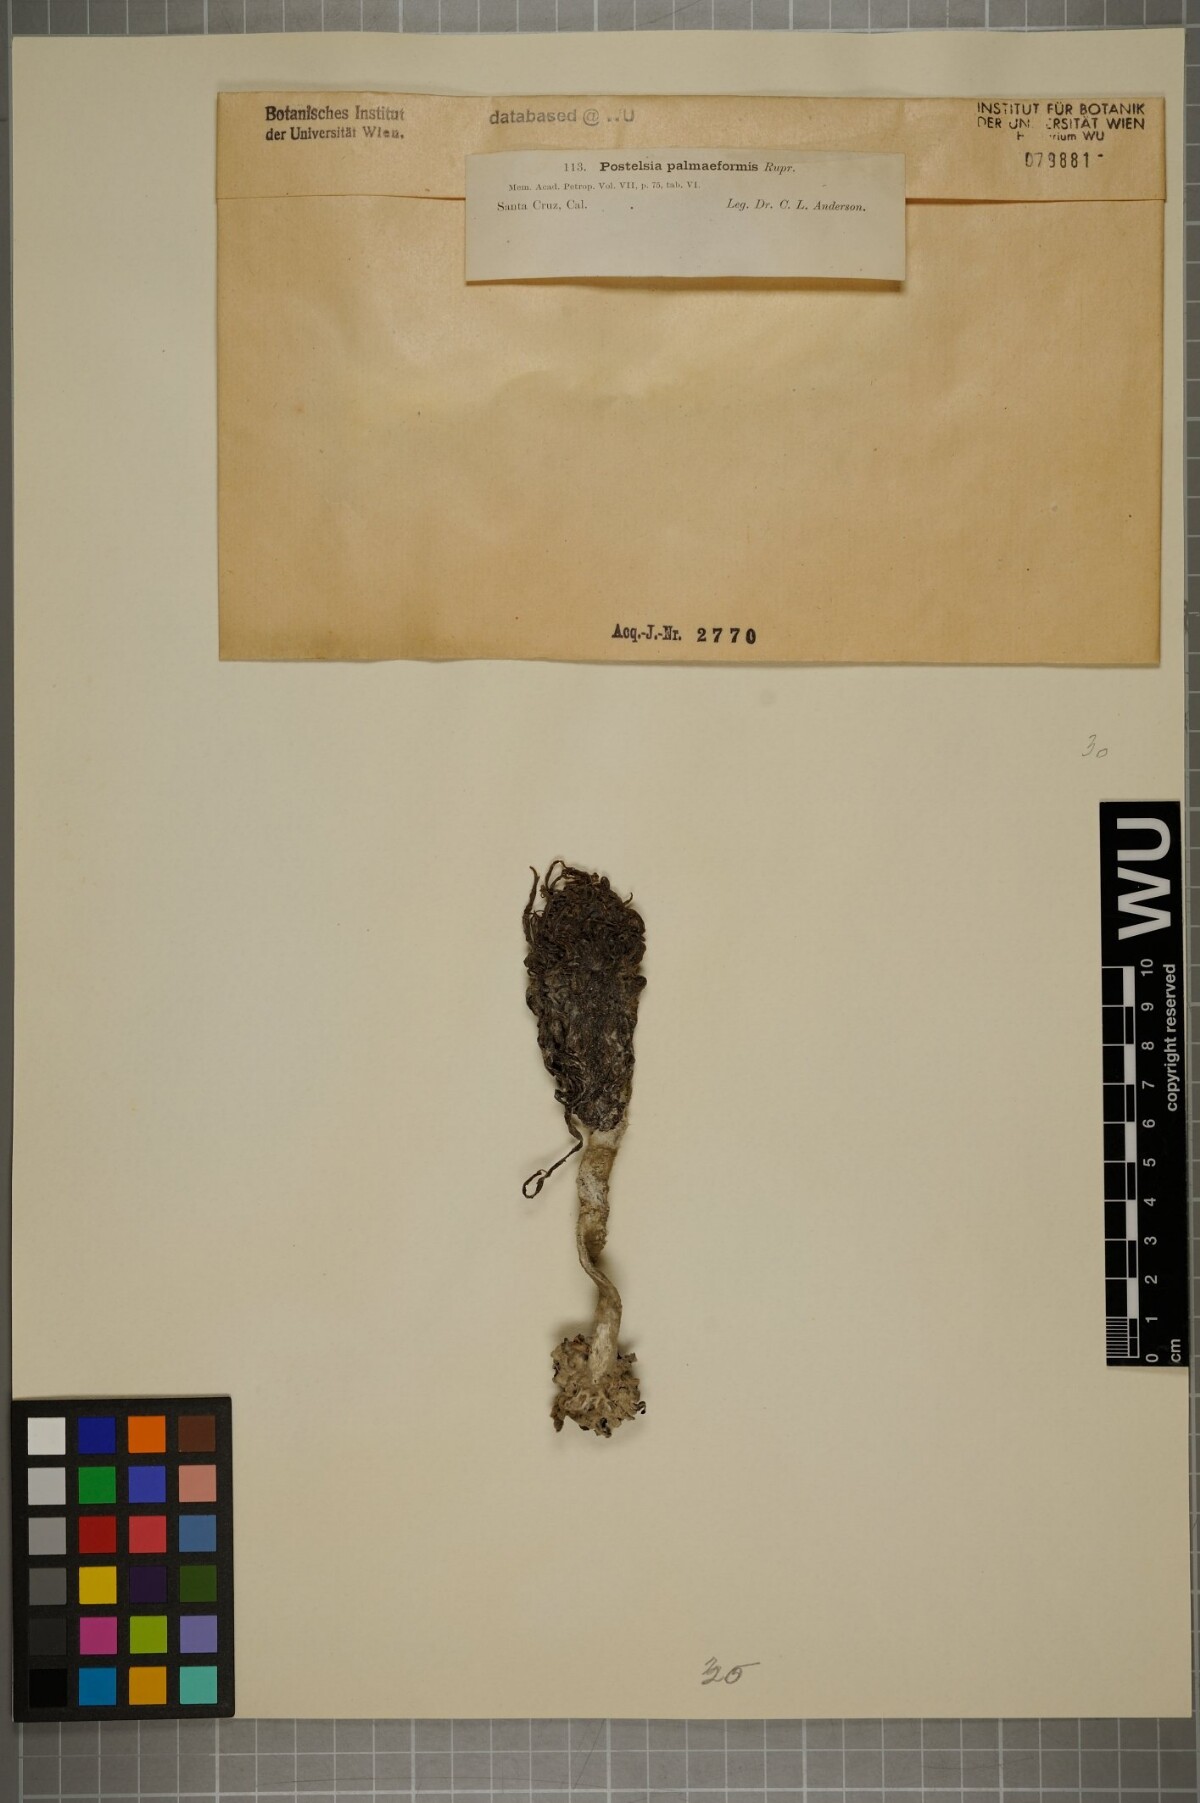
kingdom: Chromista
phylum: Ochrophyta
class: Phaeophyceae
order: Laminariales
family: Laminariaceae
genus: Postelsia
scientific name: Postelsia palmaeformis
